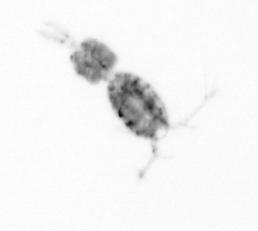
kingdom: Animalia
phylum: Arthropoda
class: Copepoda
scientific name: Copepoda
